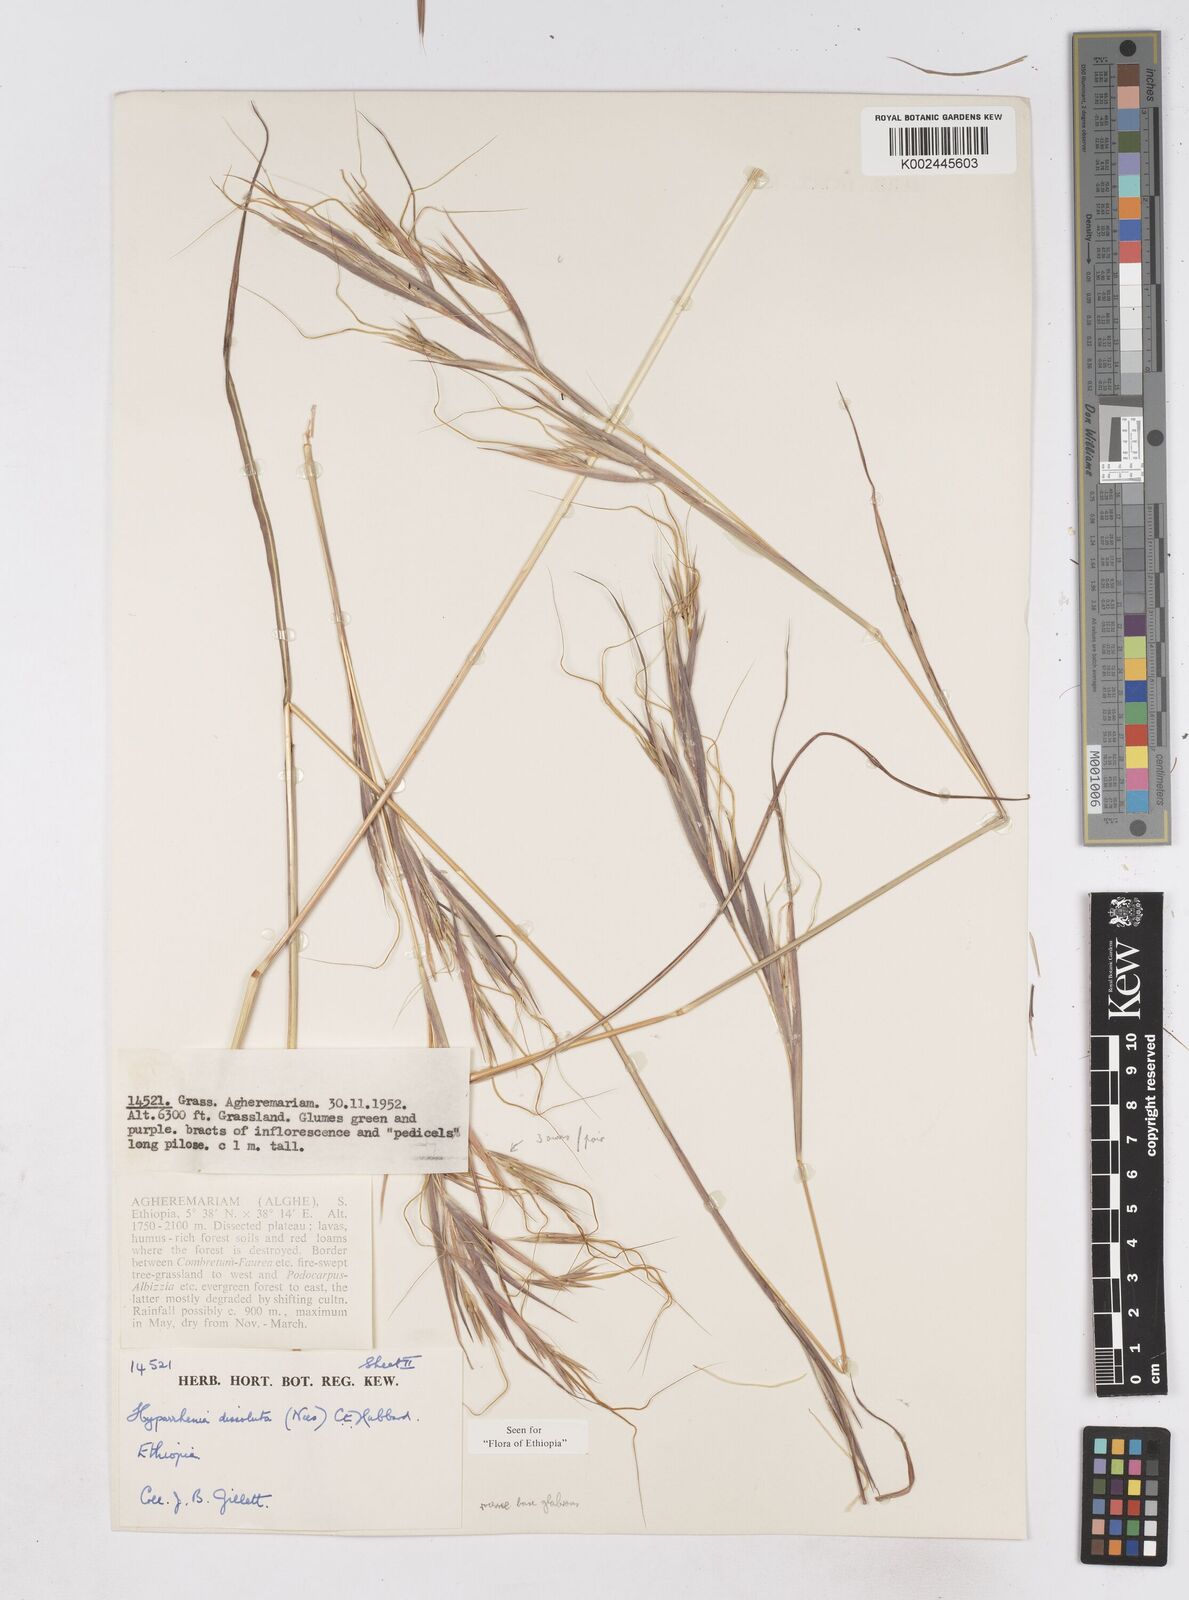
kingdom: Plantae
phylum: Tracheophyta
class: Liliopsida
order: Poales
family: Poaceae
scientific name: Poaceae
